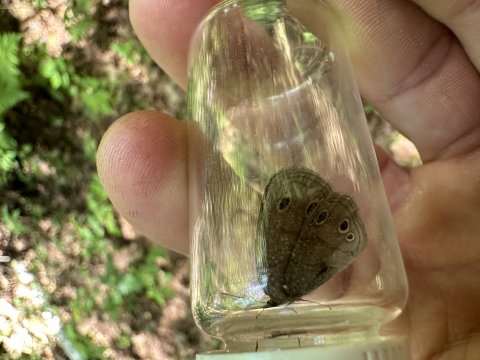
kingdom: Animalia
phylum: Arthropoda
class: Insecta
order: Lepidoptera
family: Nymphalidae
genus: Euptychia
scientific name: Euptychia cymela
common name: Little Wood Satyr
